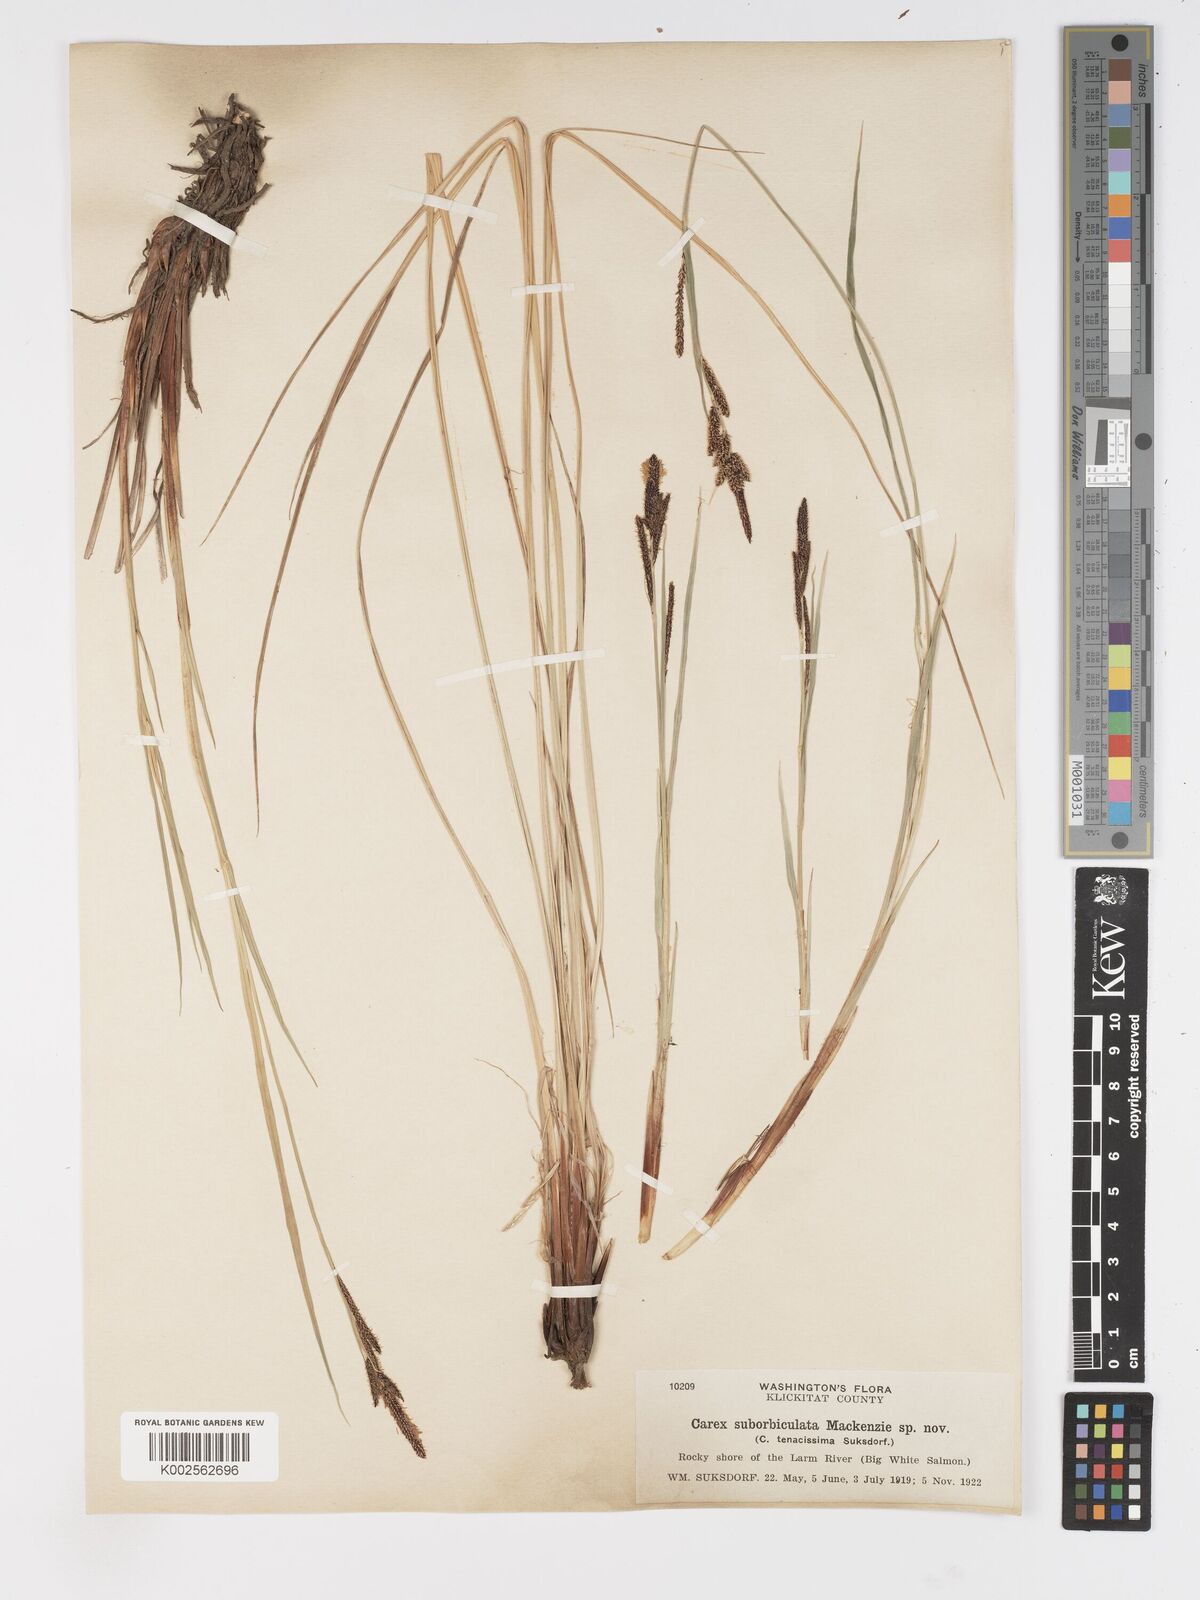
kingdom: Plantae
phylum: Tracheophyta
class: Liliopsida
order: Poales
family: Cyperaceae
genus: Carex
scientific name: Carex nudata
